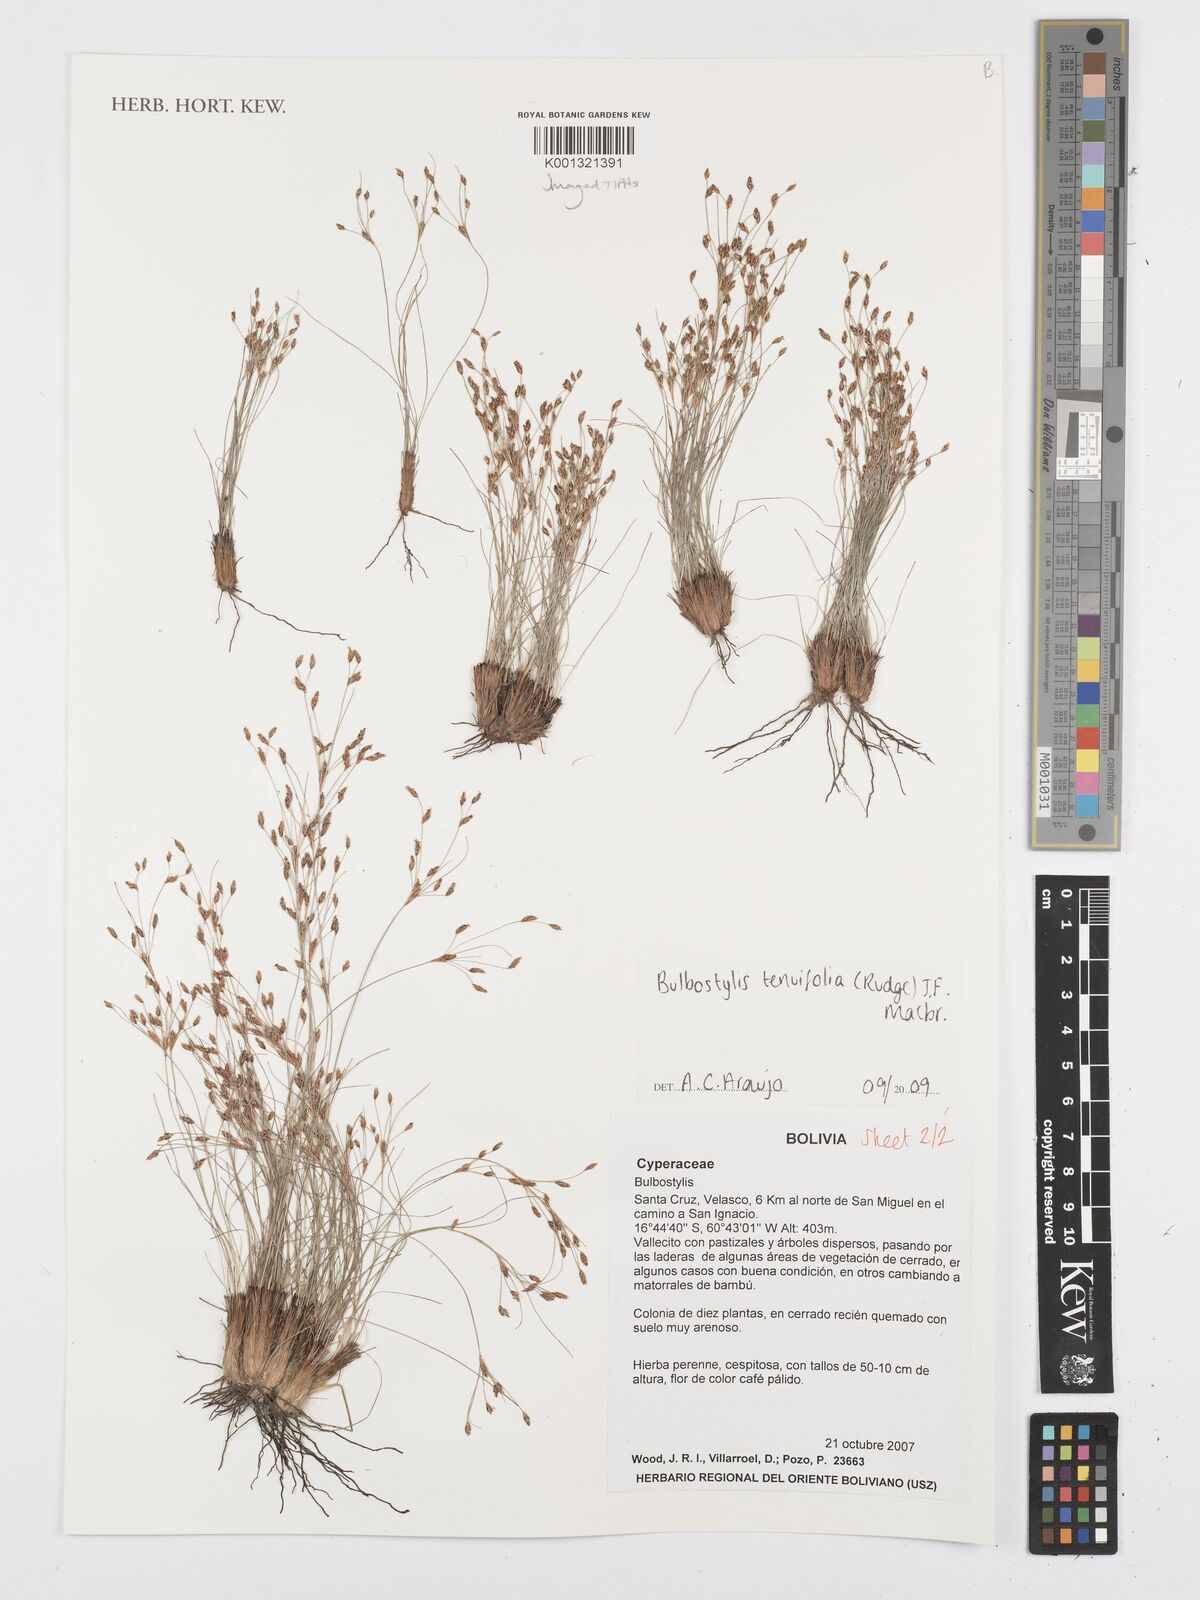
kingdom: Plantae
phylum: Tracheophyta
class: Liliopsida
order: Poales
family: Cyperaceae
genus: Bulbostylis
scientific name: Bulbostylis tenuifolia
